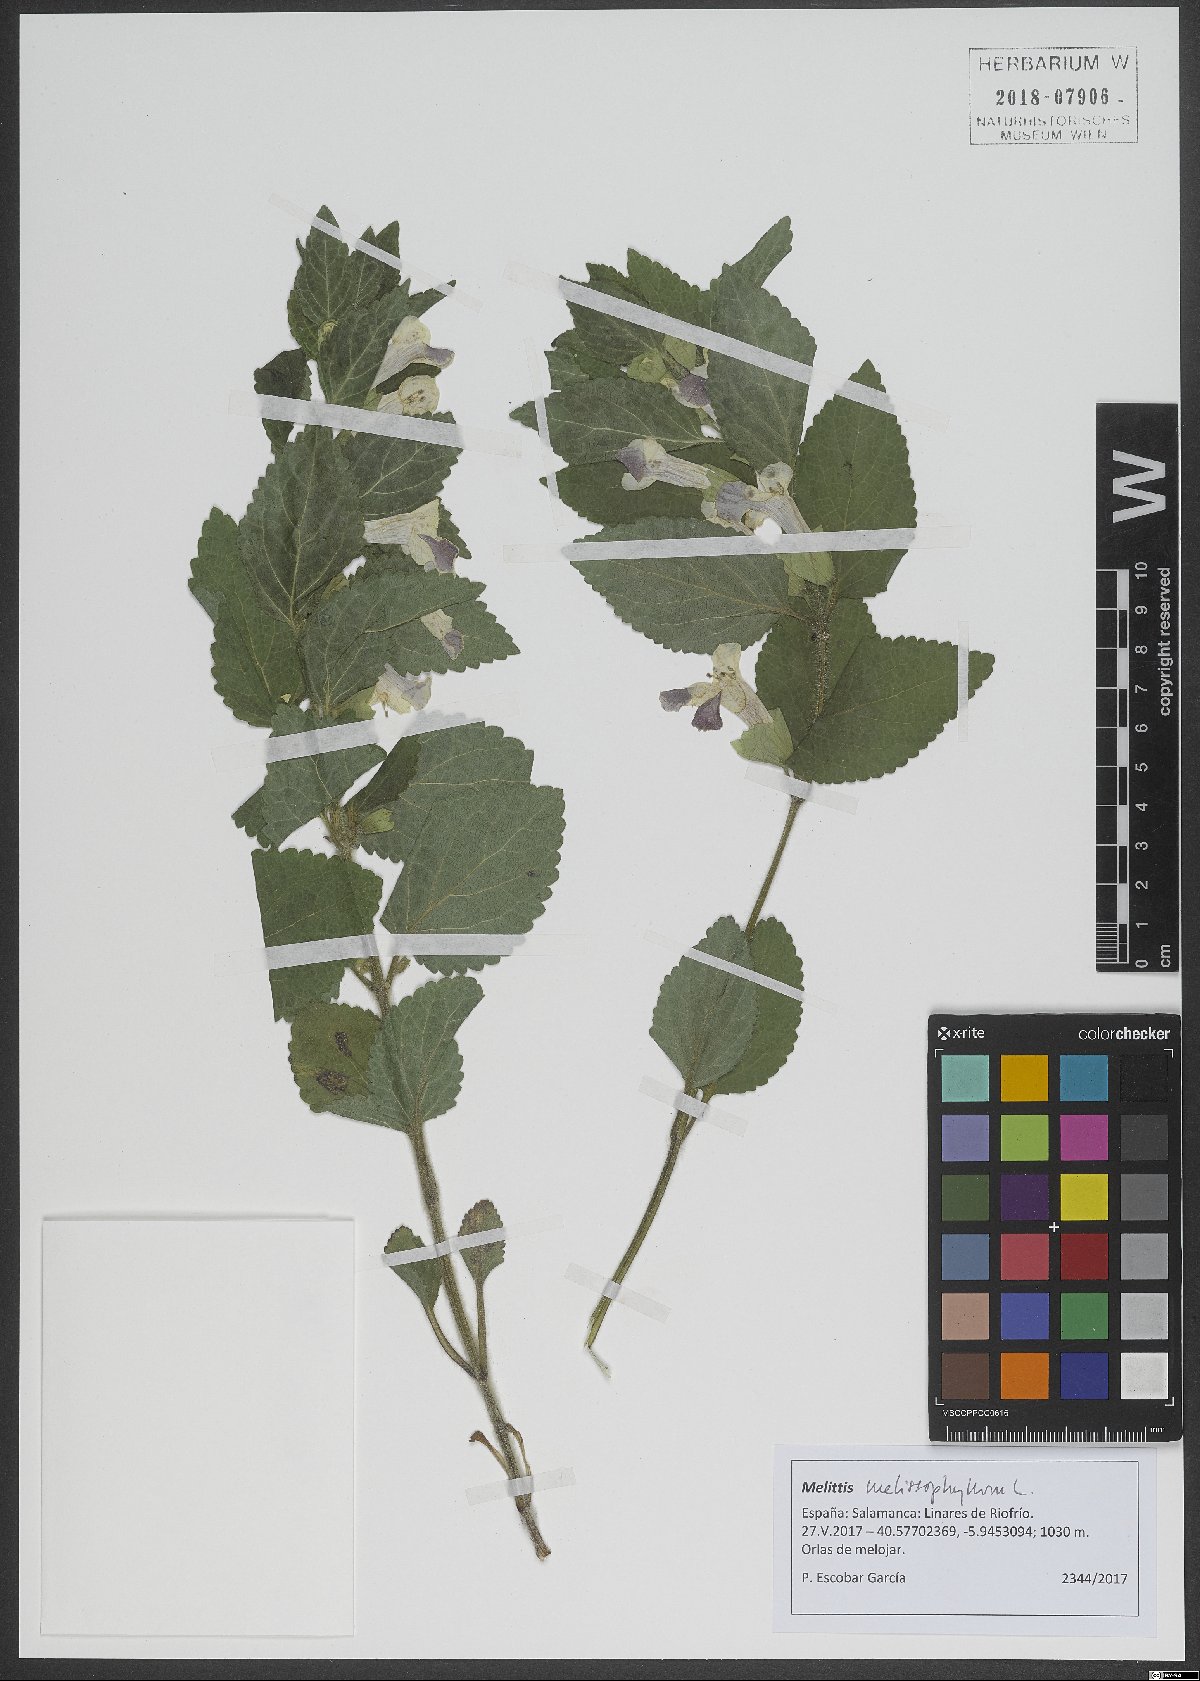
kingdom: Plantae
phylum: Tracheophyta
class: Magnoliopsida
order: Lamiales
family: Lamiaceae
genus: Melittis
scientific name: Melittis melissophyllum
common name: Bastard balm
